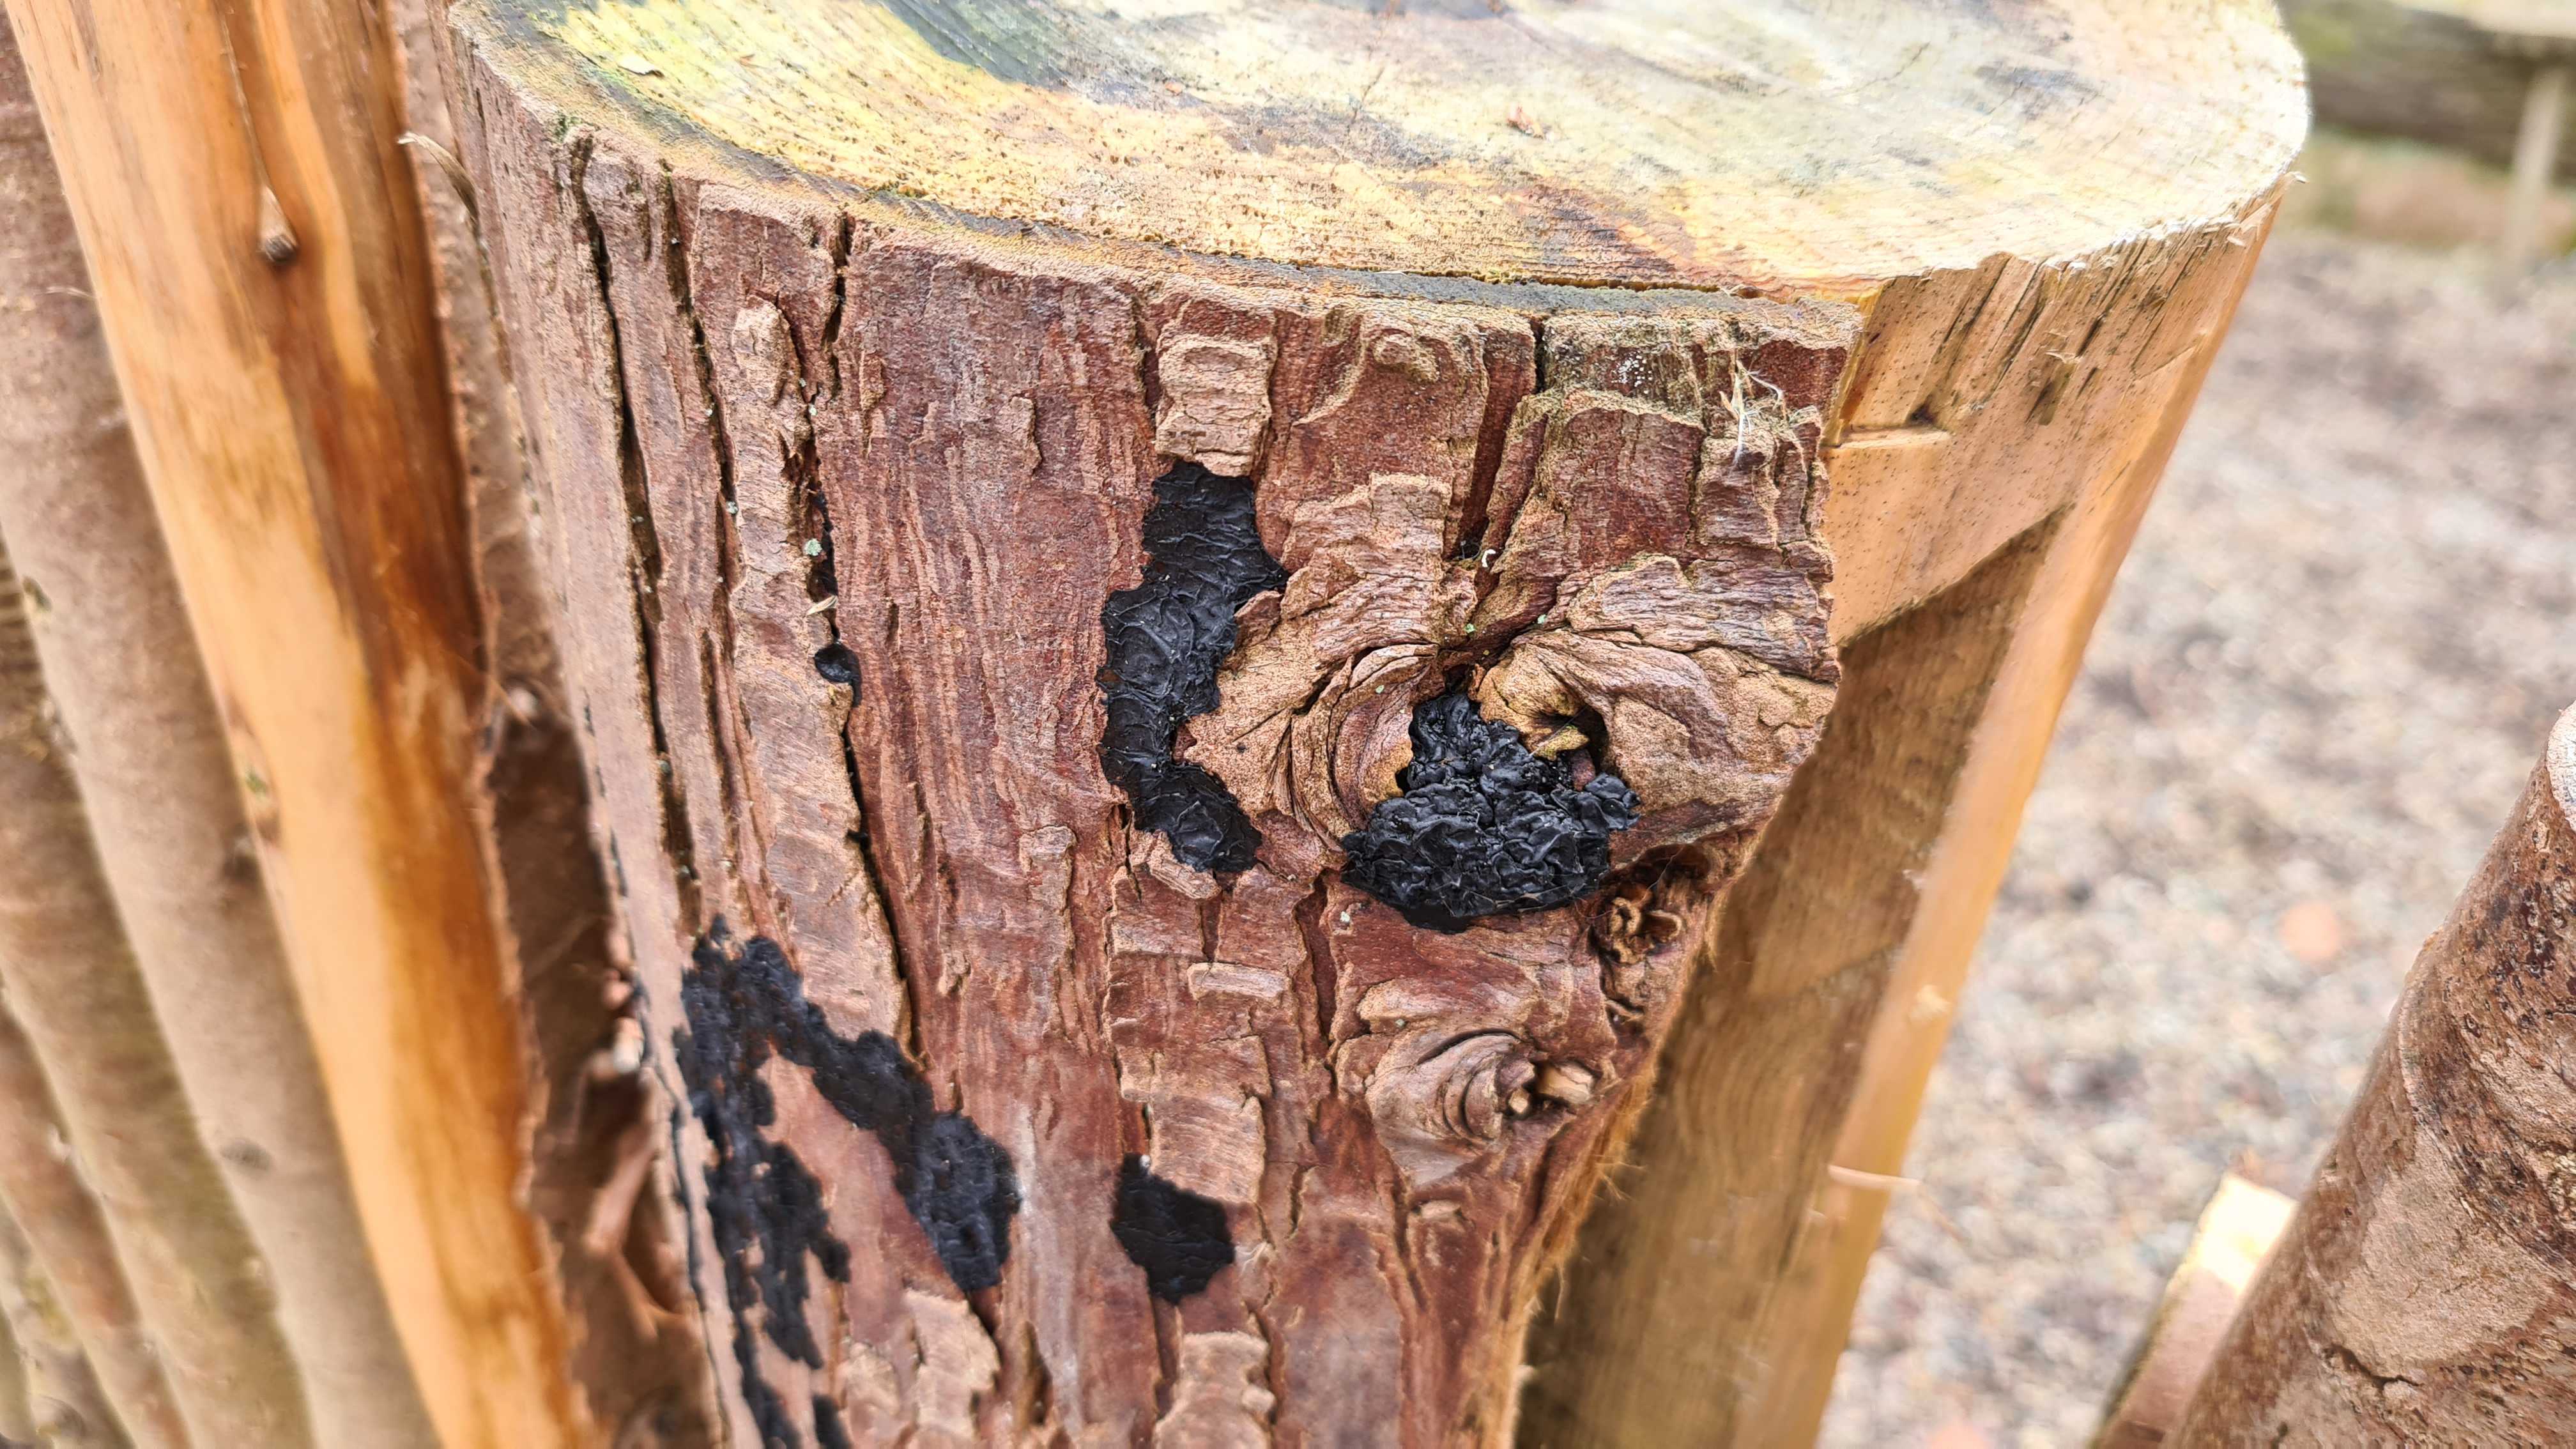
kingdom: Fungi
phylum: Basidiomycota
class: Agaricomycetes
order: Auriculariales
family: Auriculariaceae
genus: Exidia
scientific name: Exidia pithya
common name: gran-bævretop
